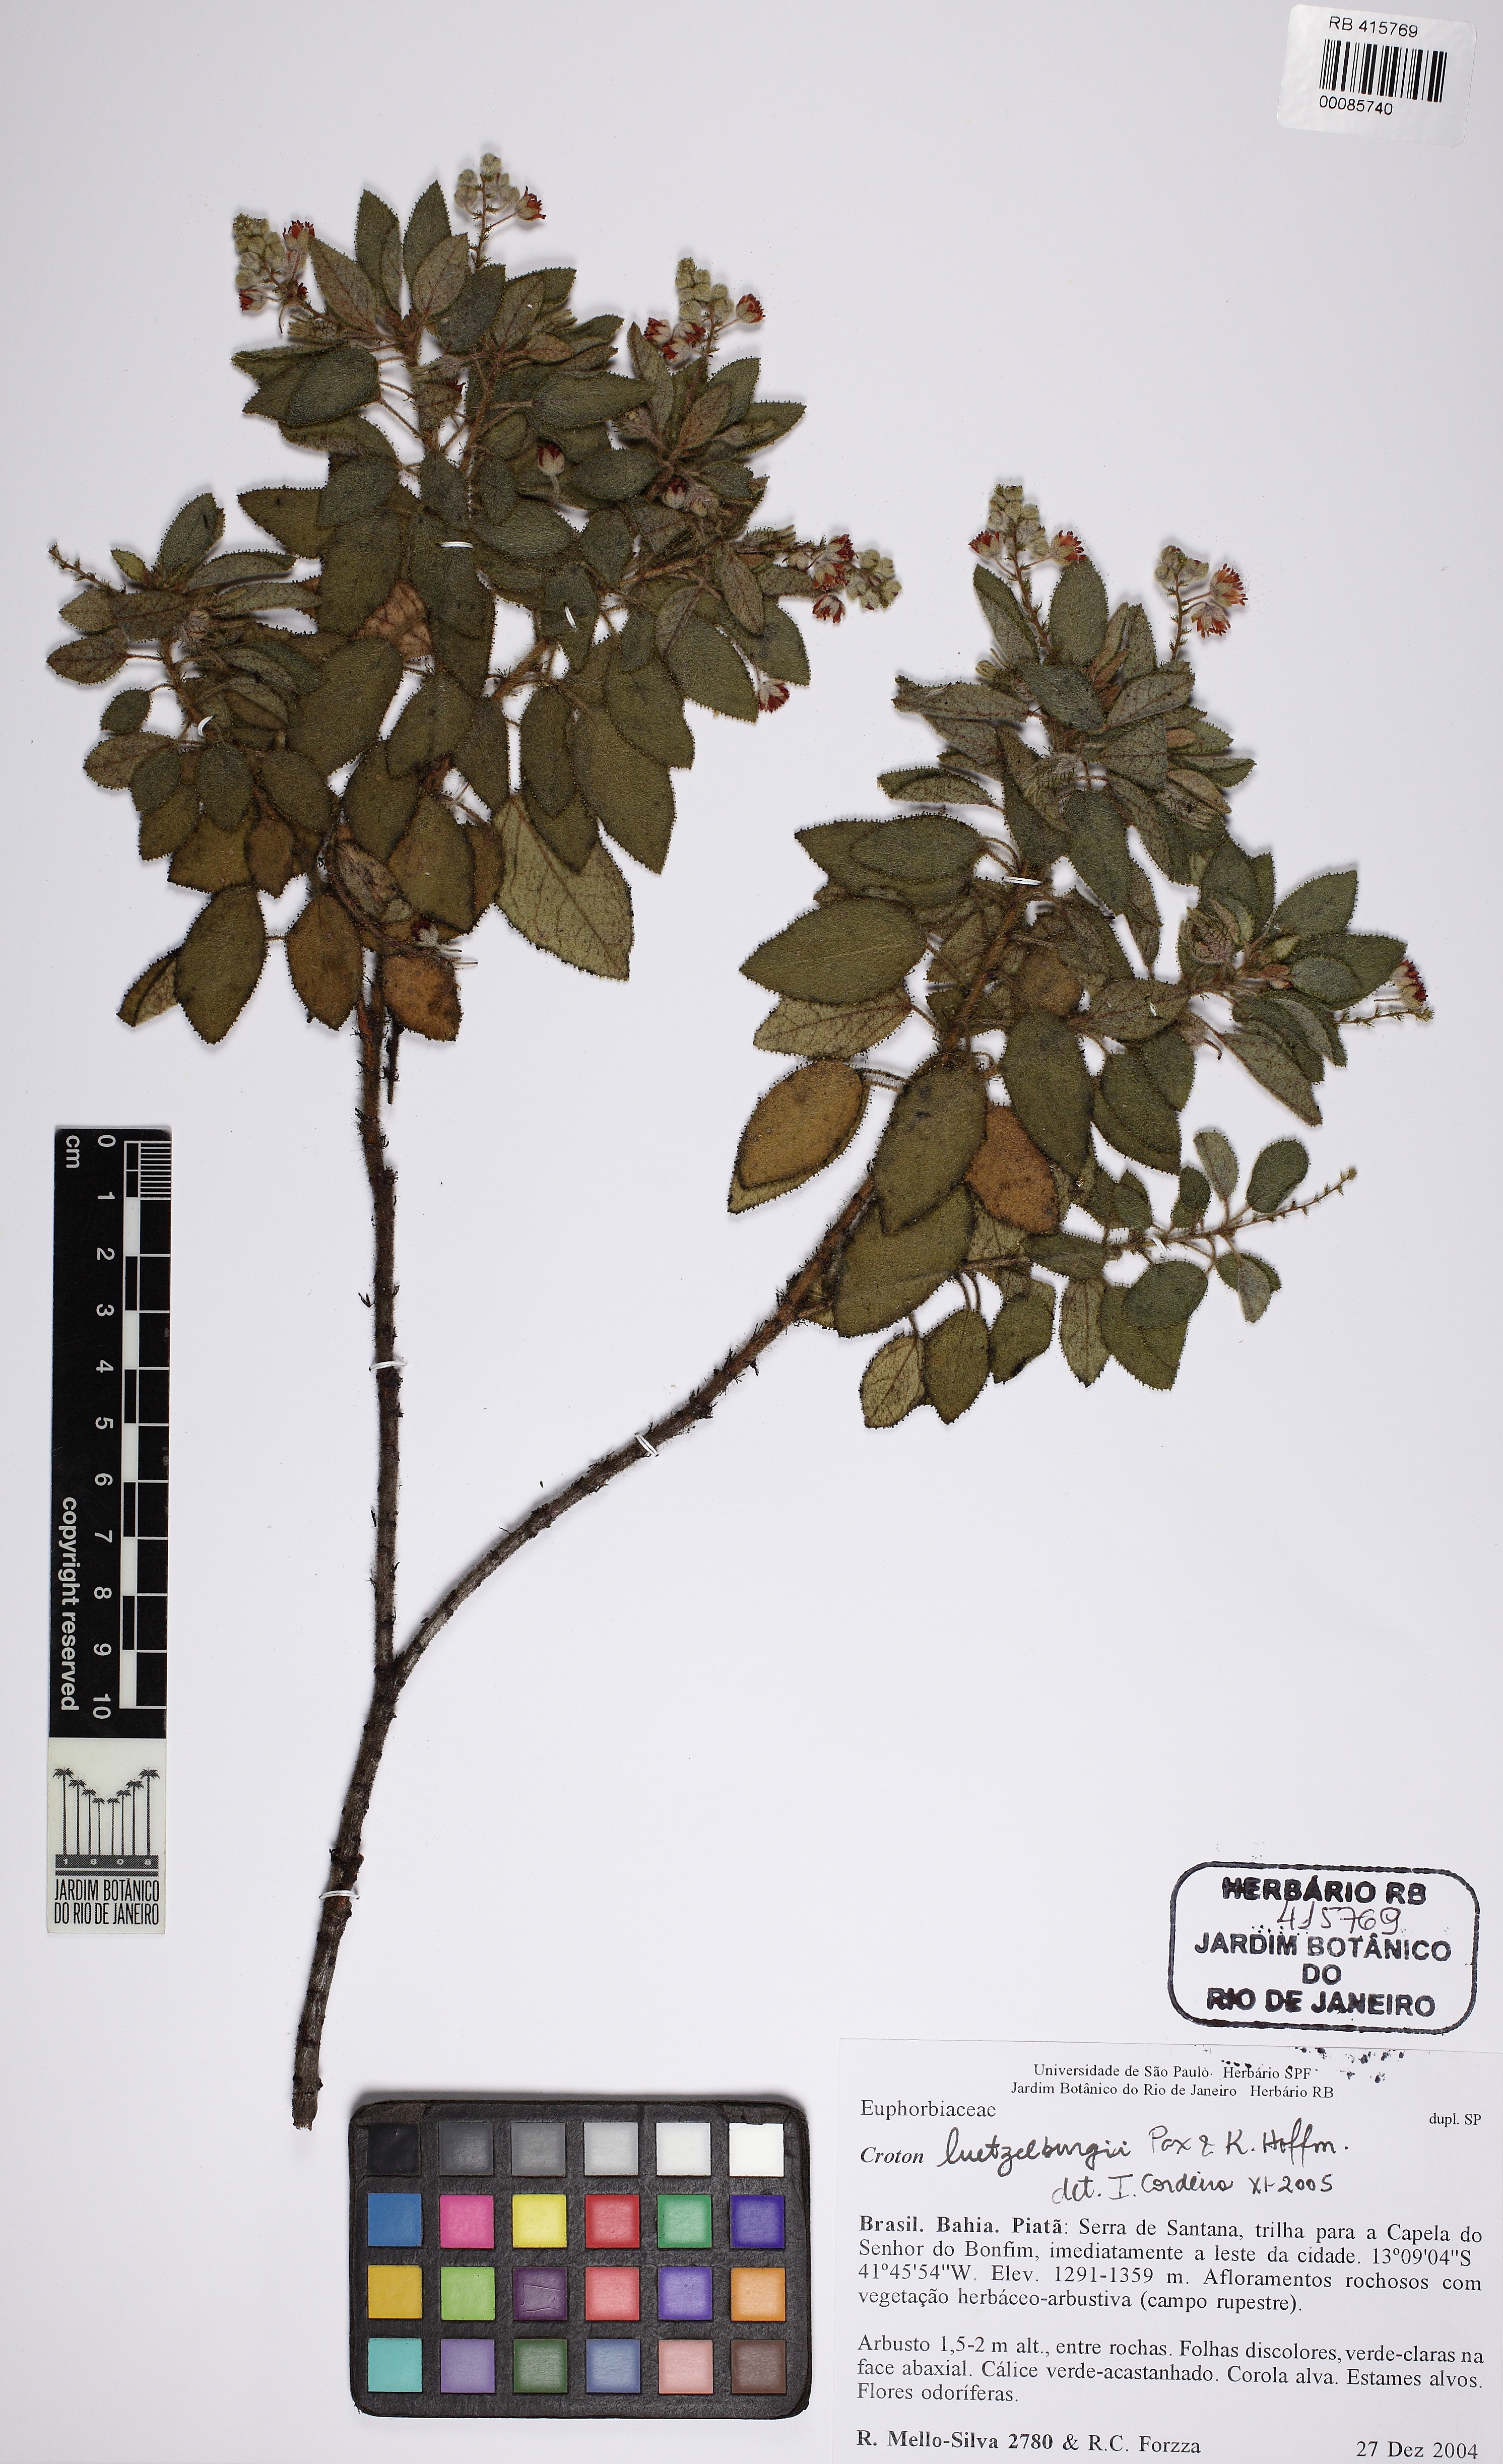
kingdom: Plantae
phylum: Tracheophyta
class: Magnoliopsida
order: Malpighiales
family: Euphorbiaceae
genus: Croton
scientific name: Croton luetzelburgii
